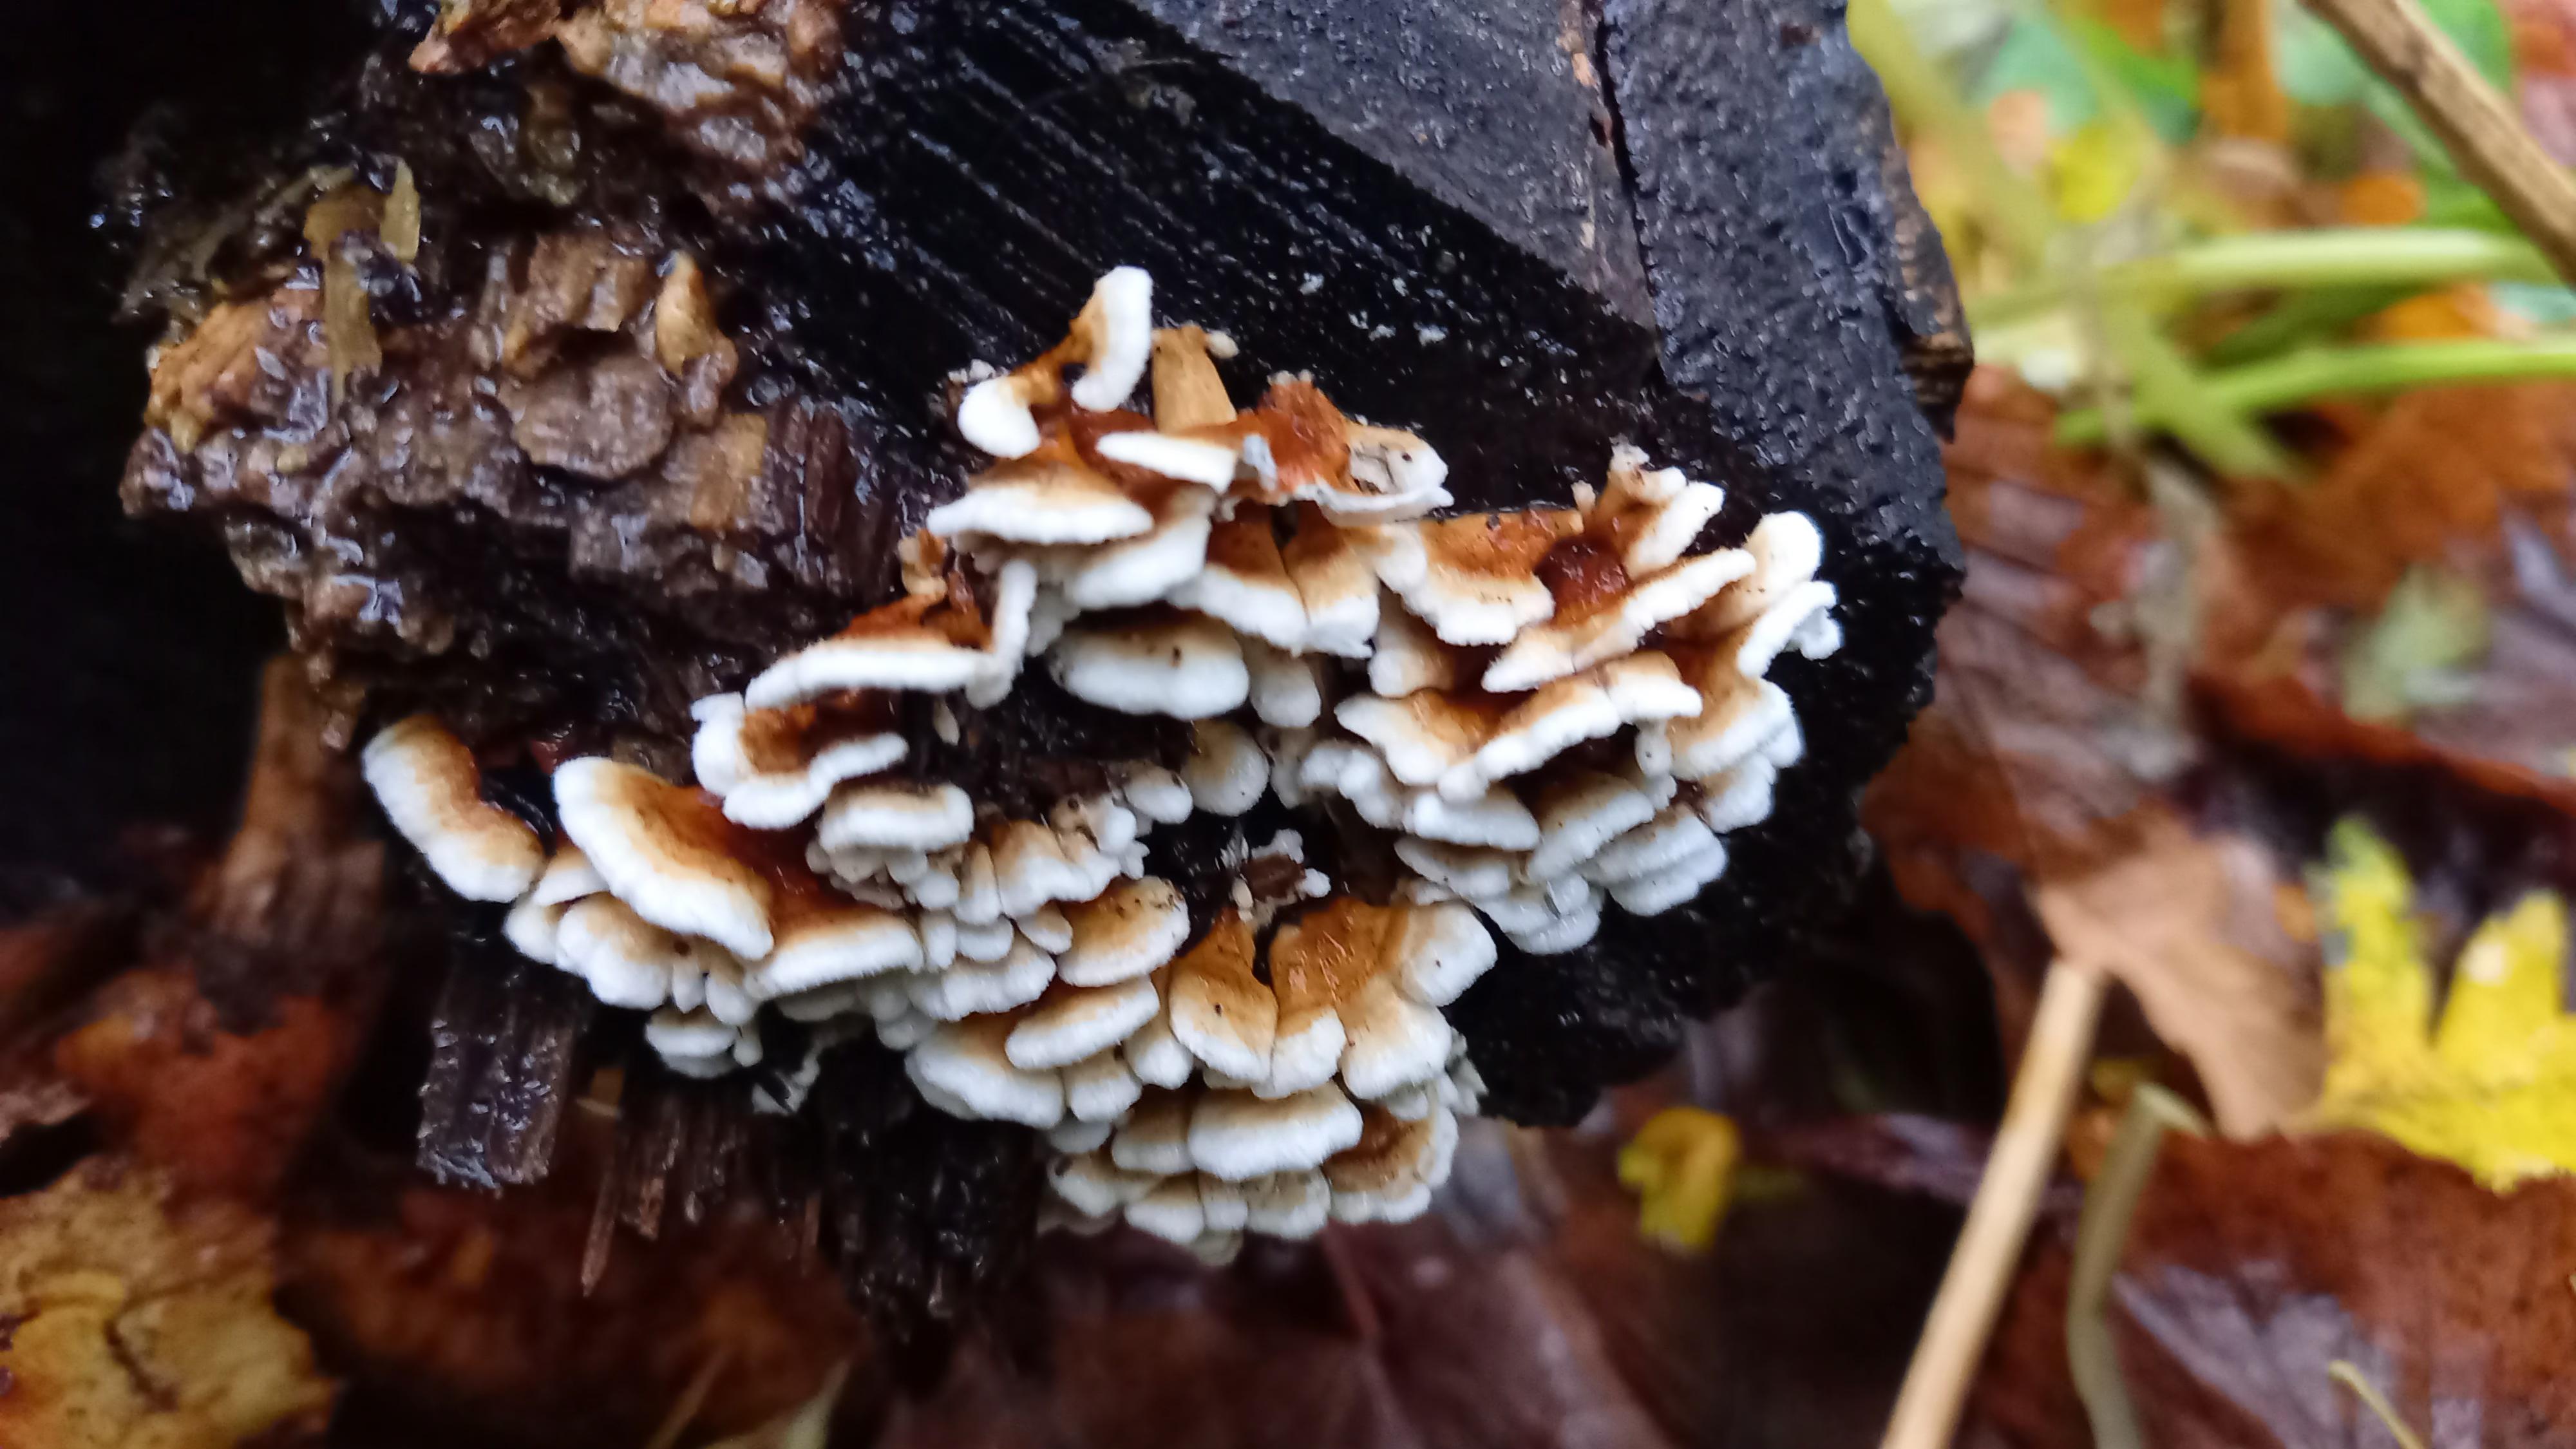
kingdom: Fungi
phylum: Basidiomycota
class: Agaricomycetes
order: Amylocorticiales
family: Amylocorticiaceae
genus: Plicaturopsis
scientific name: Plicaturopsis crispa
